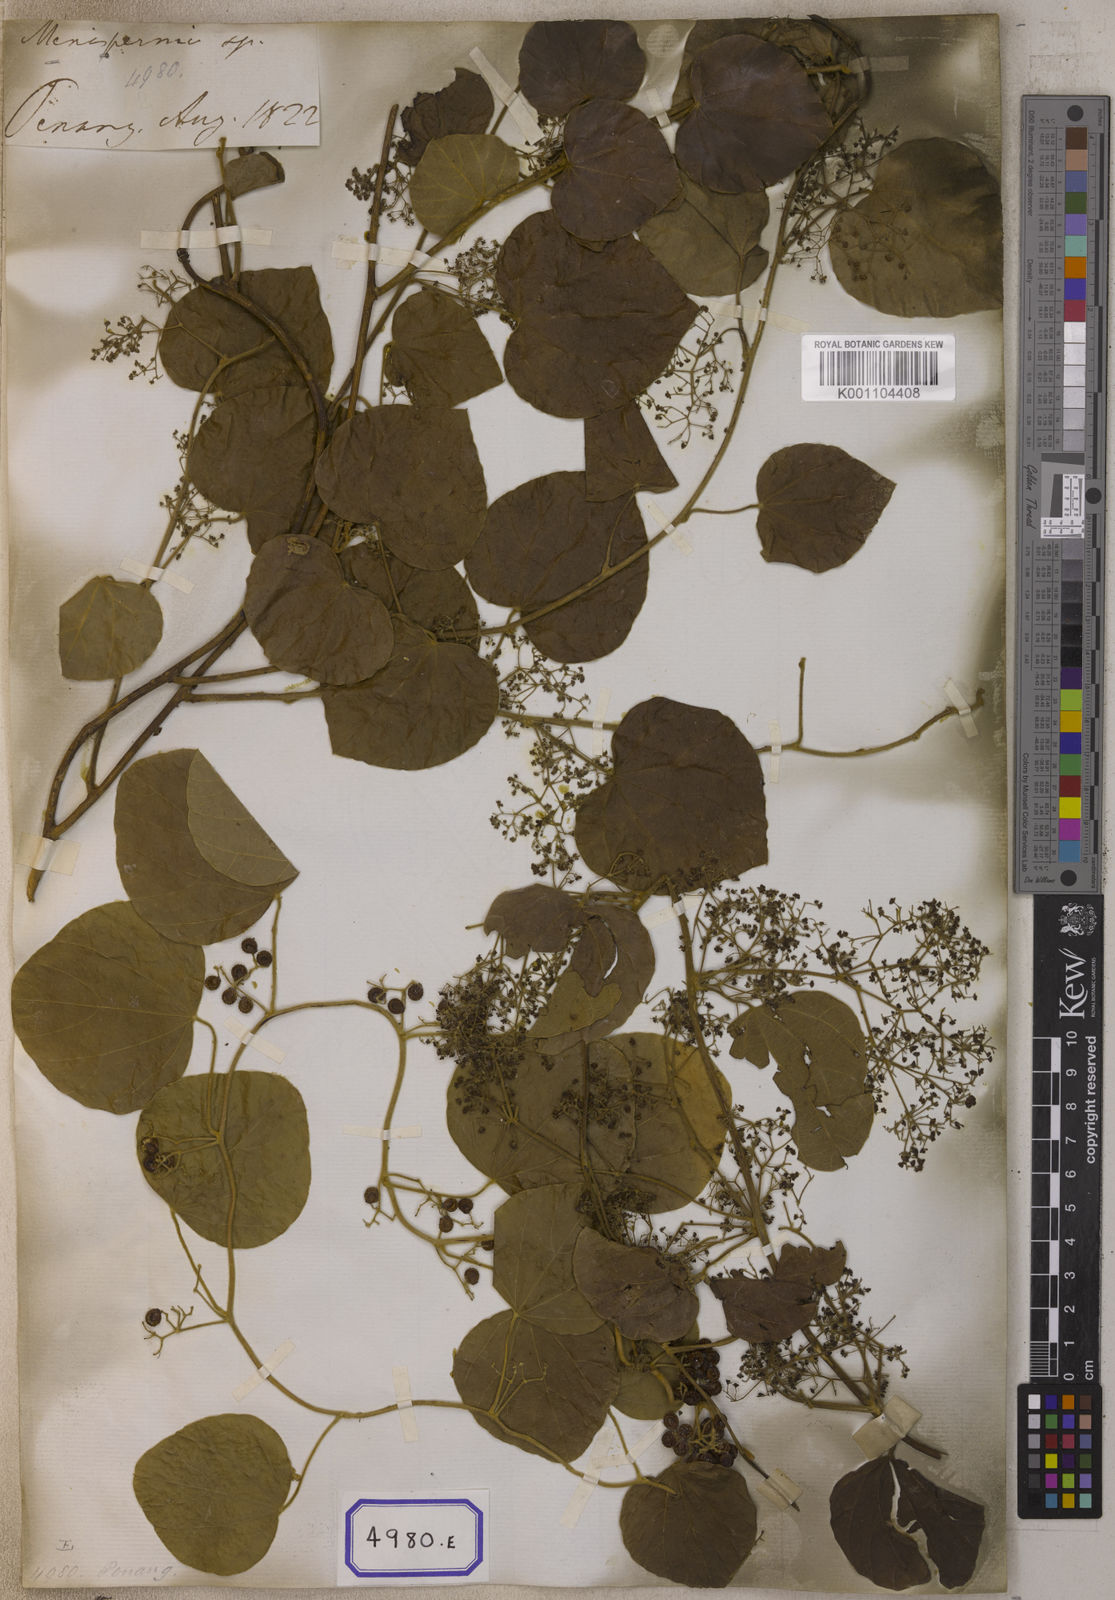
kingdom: Plantae
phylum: Tracheophyta
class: Magnoliopsida
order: Ranunculales
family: Menispermaceae
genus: Cissampelos
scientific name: Cissampelos
